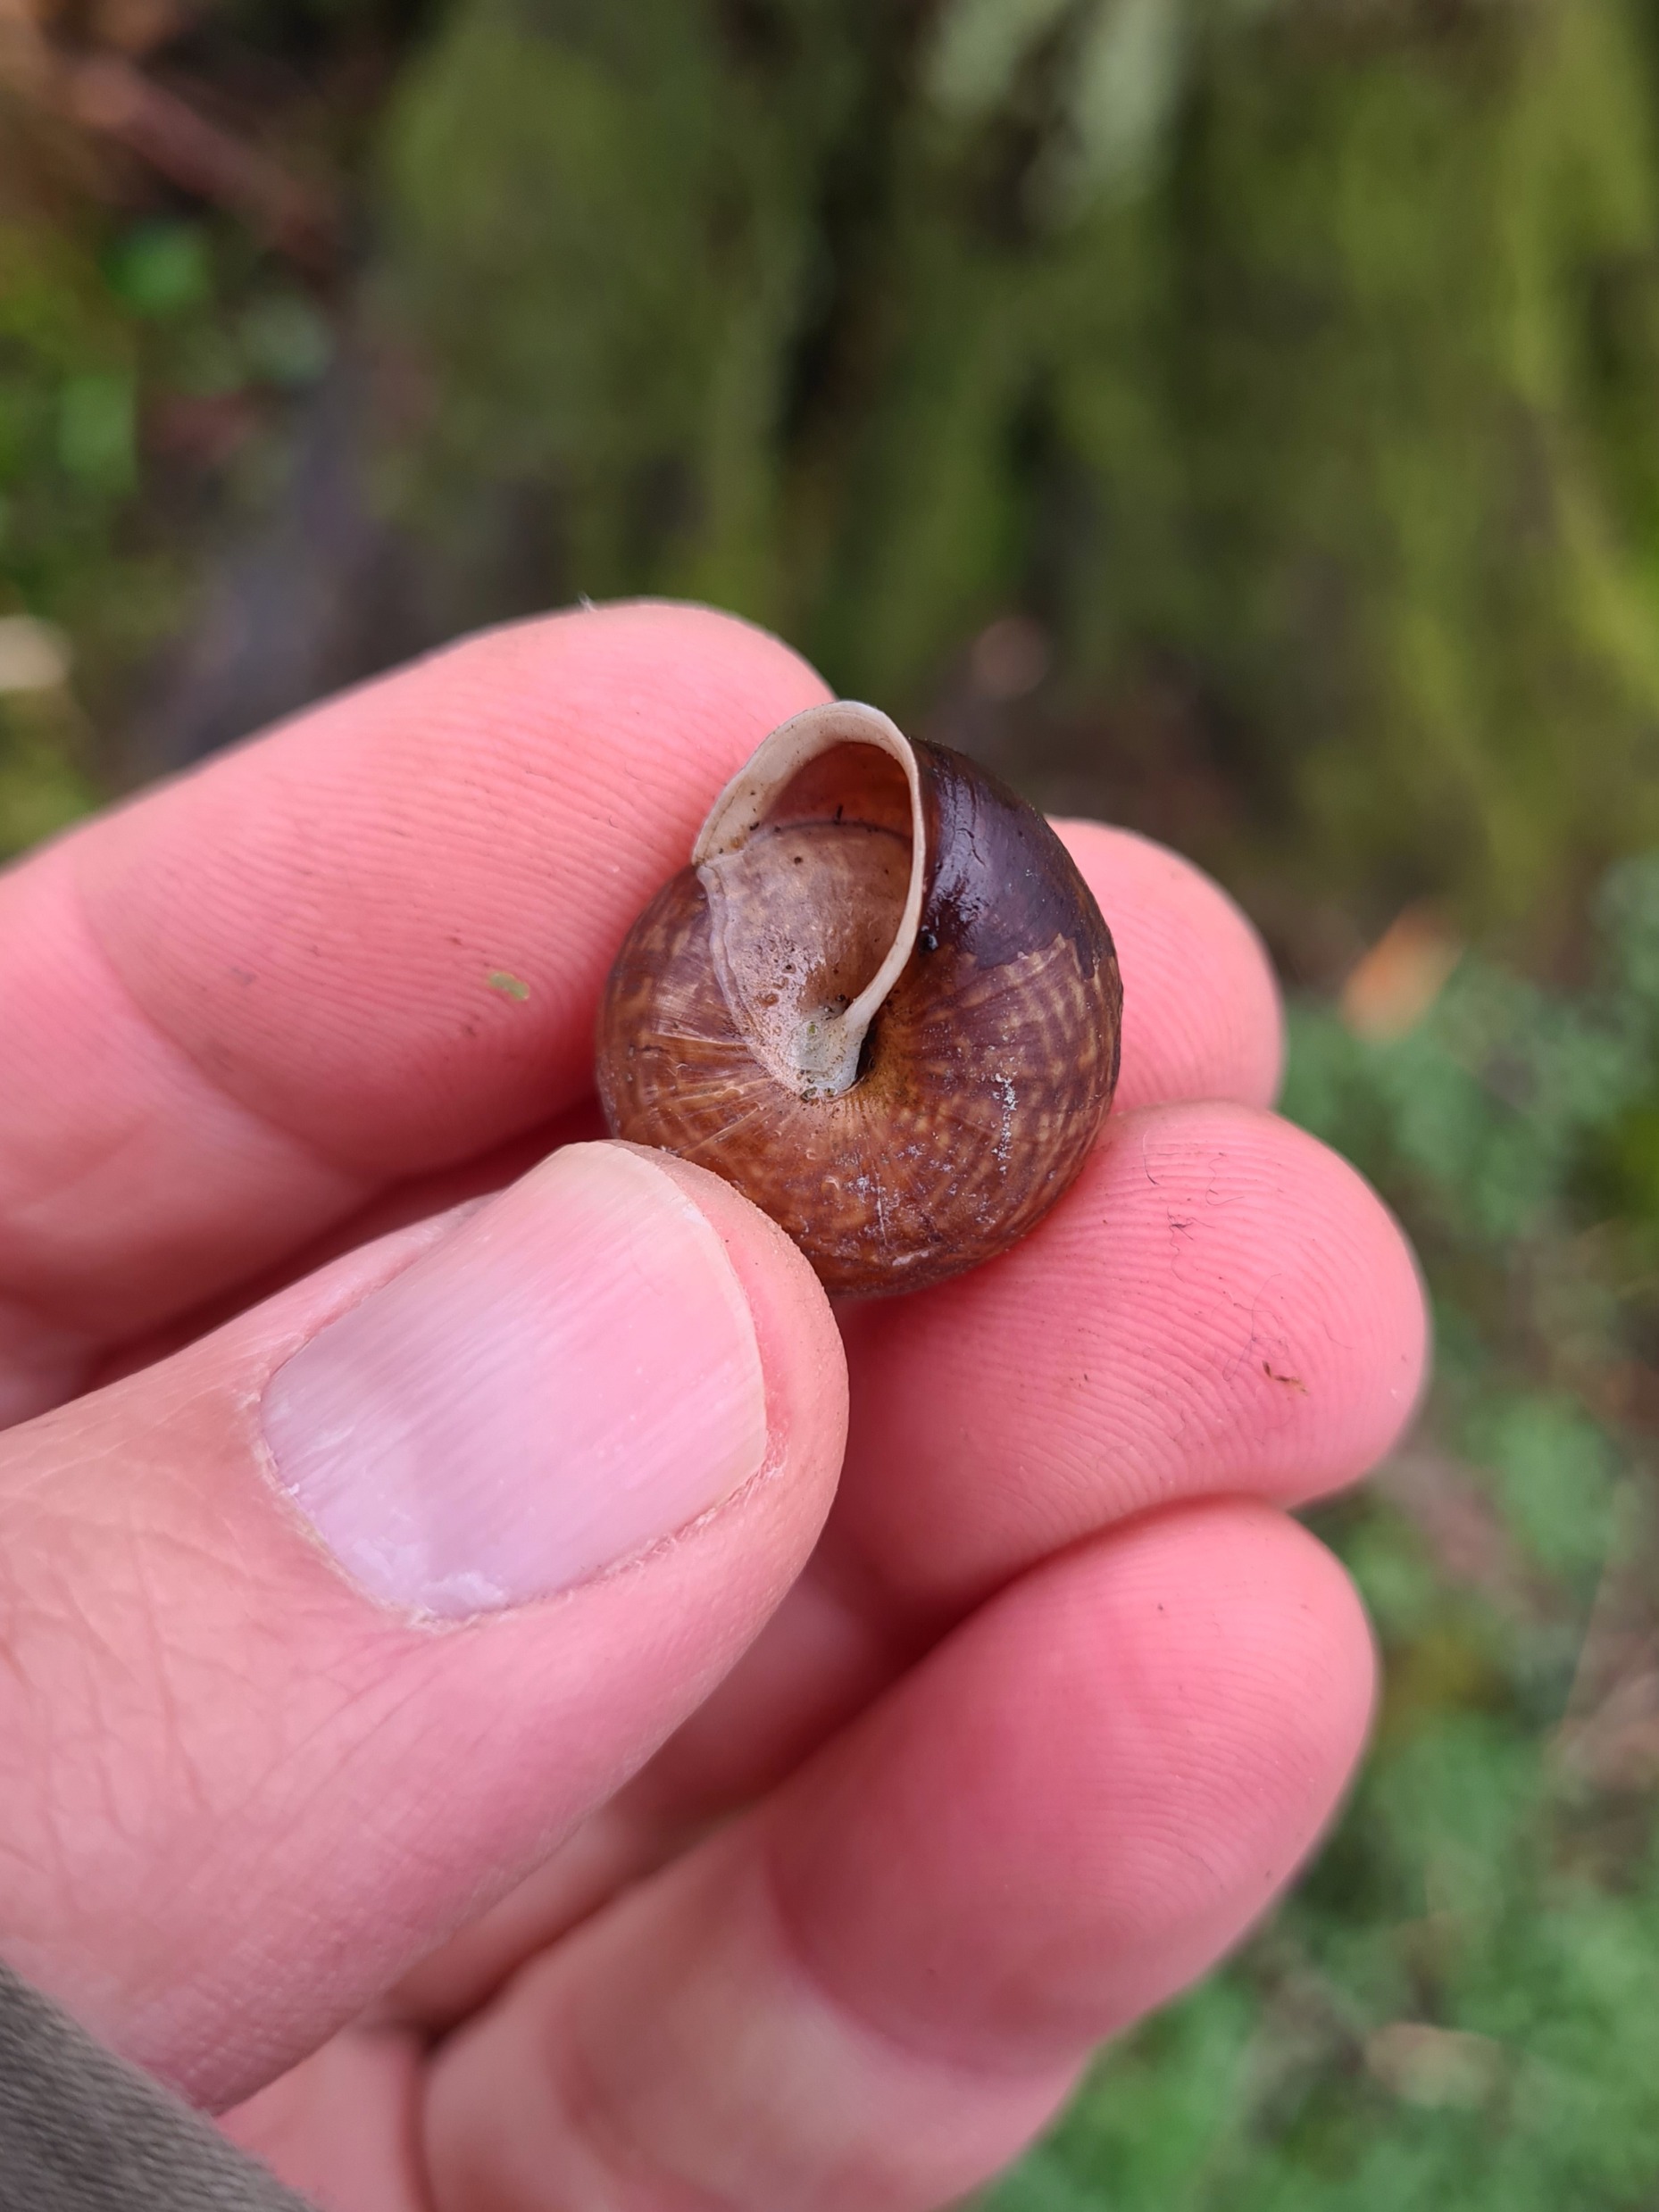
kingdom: Animalia
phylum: Mollusca
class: Gastropoda
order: Stylommatophora
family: Helicidae
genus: Arianta
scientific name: Arianta arbustorum
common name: Kratsnegl
